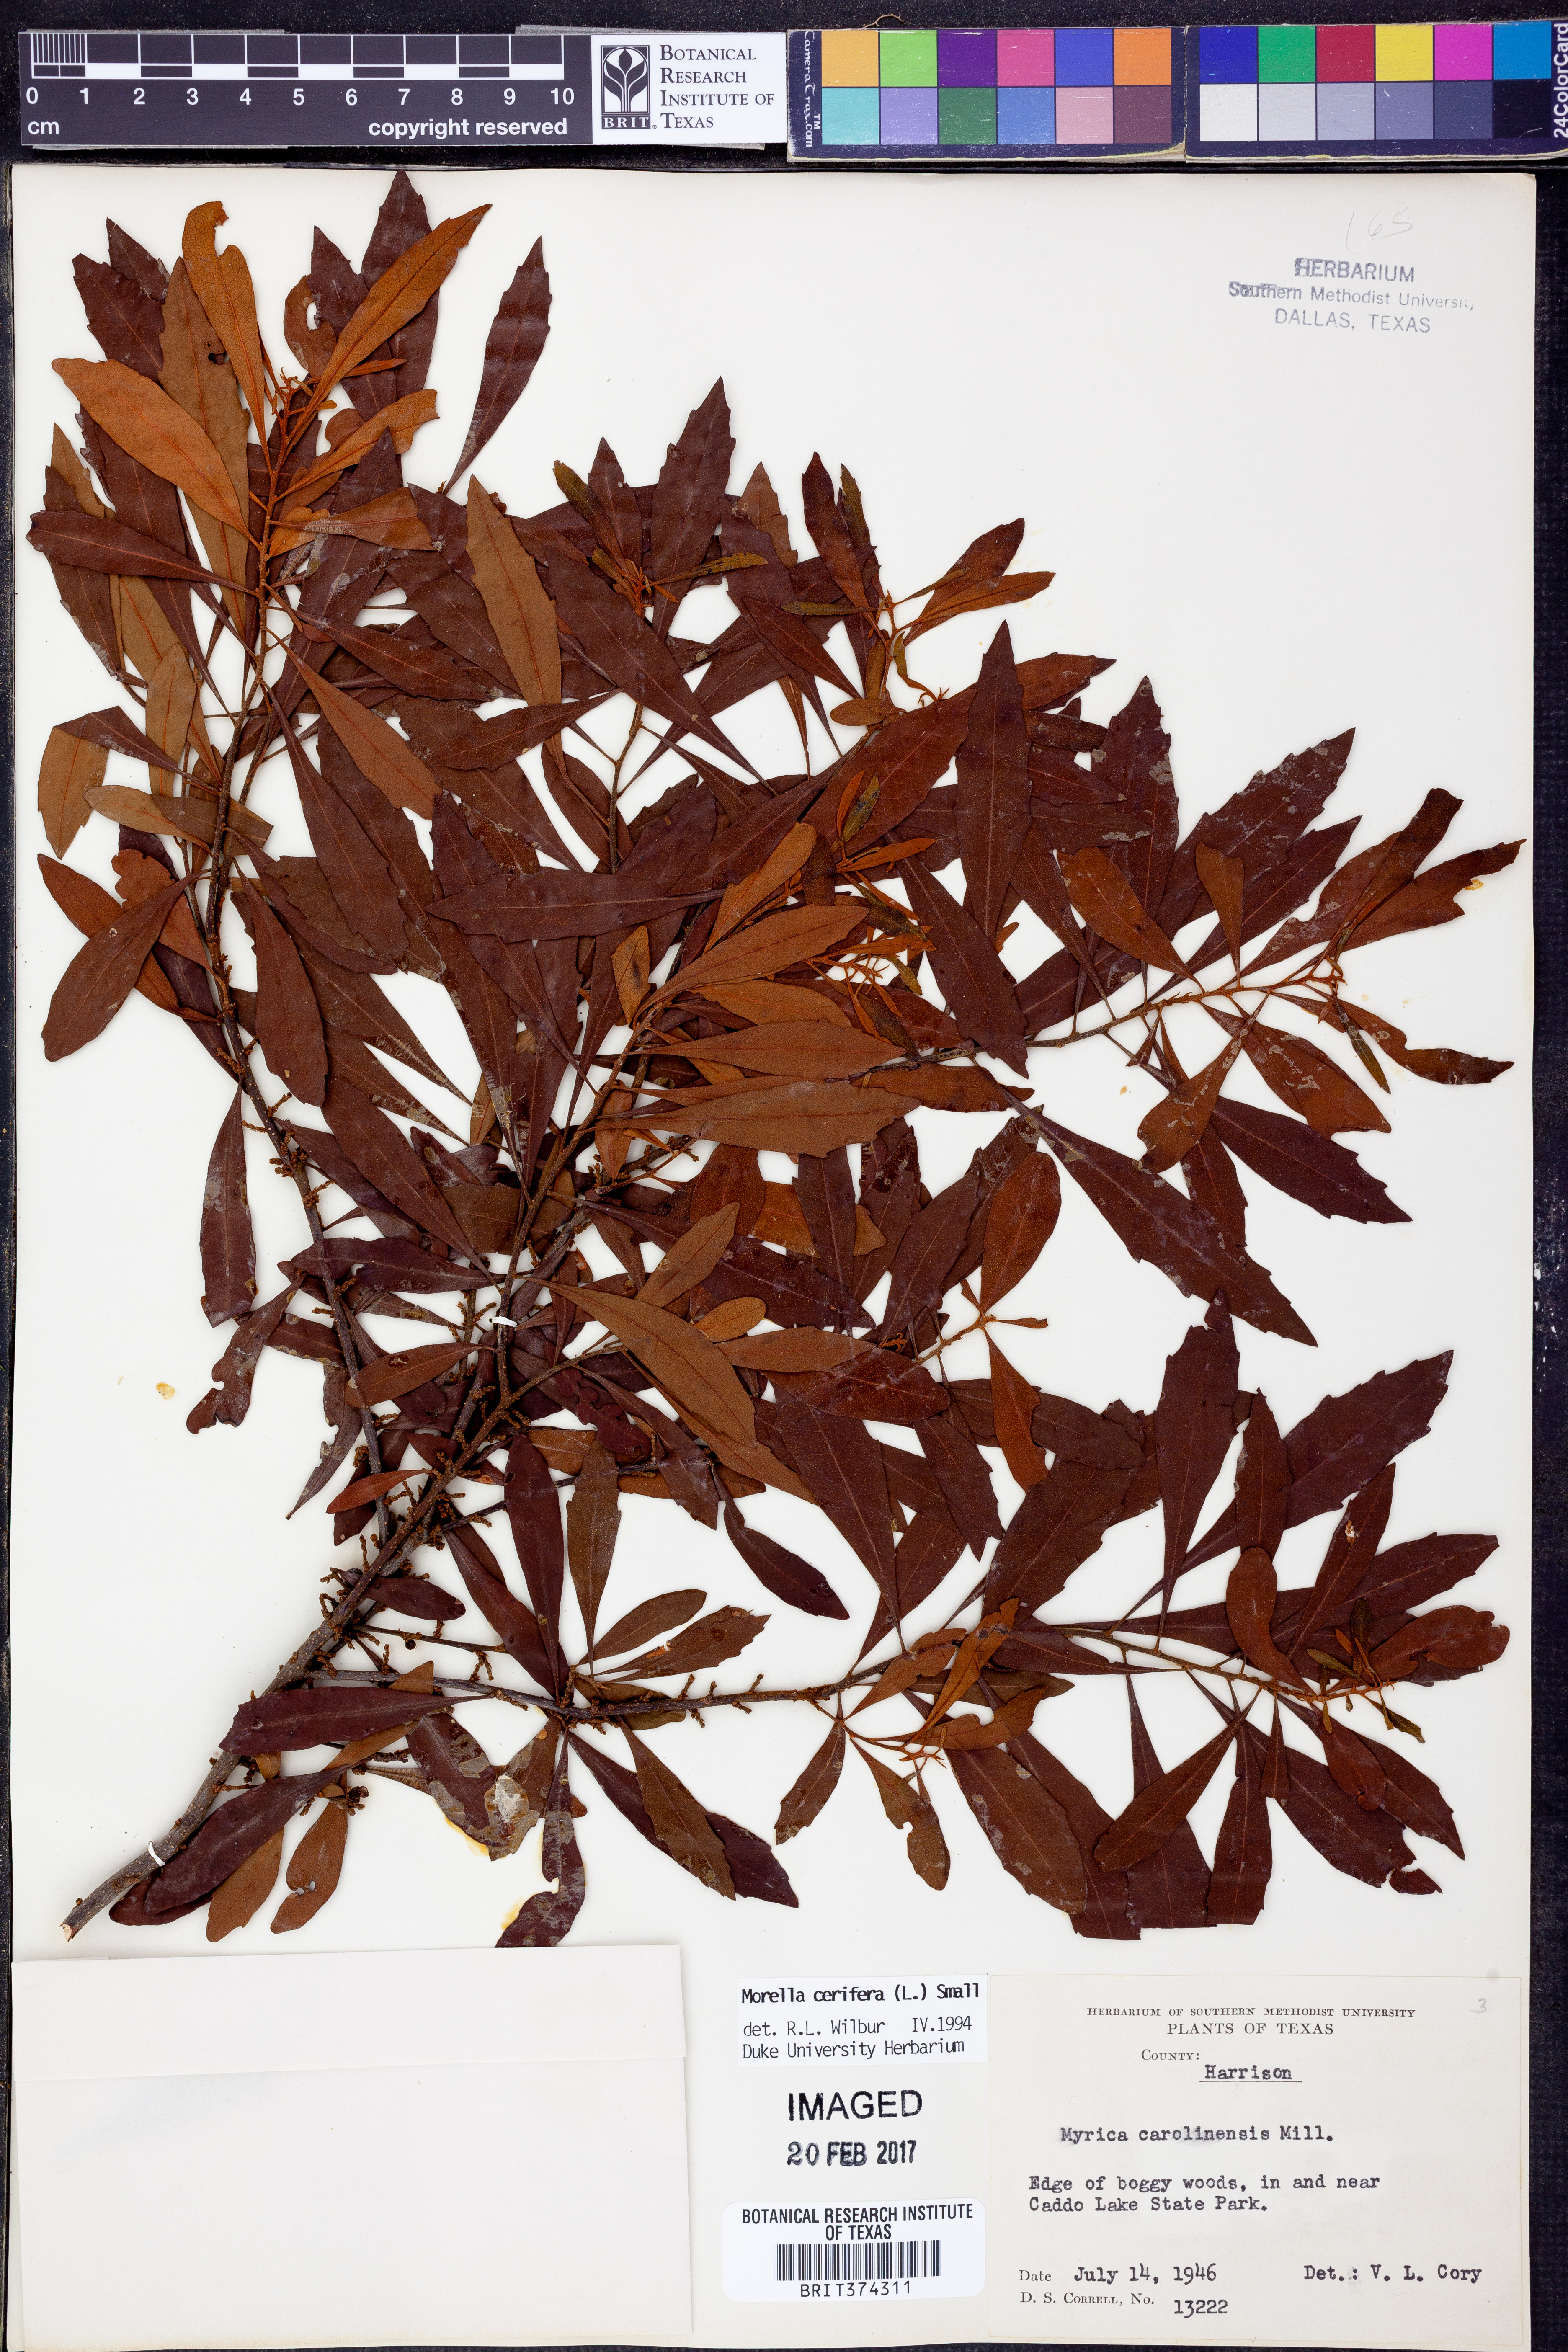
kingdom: Plantae
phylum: Tracheophyta
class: Magnoliopsida
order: Fagales
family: Myricaceae
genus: Morella
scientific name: Morella cerifera
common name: Wax myrtle
